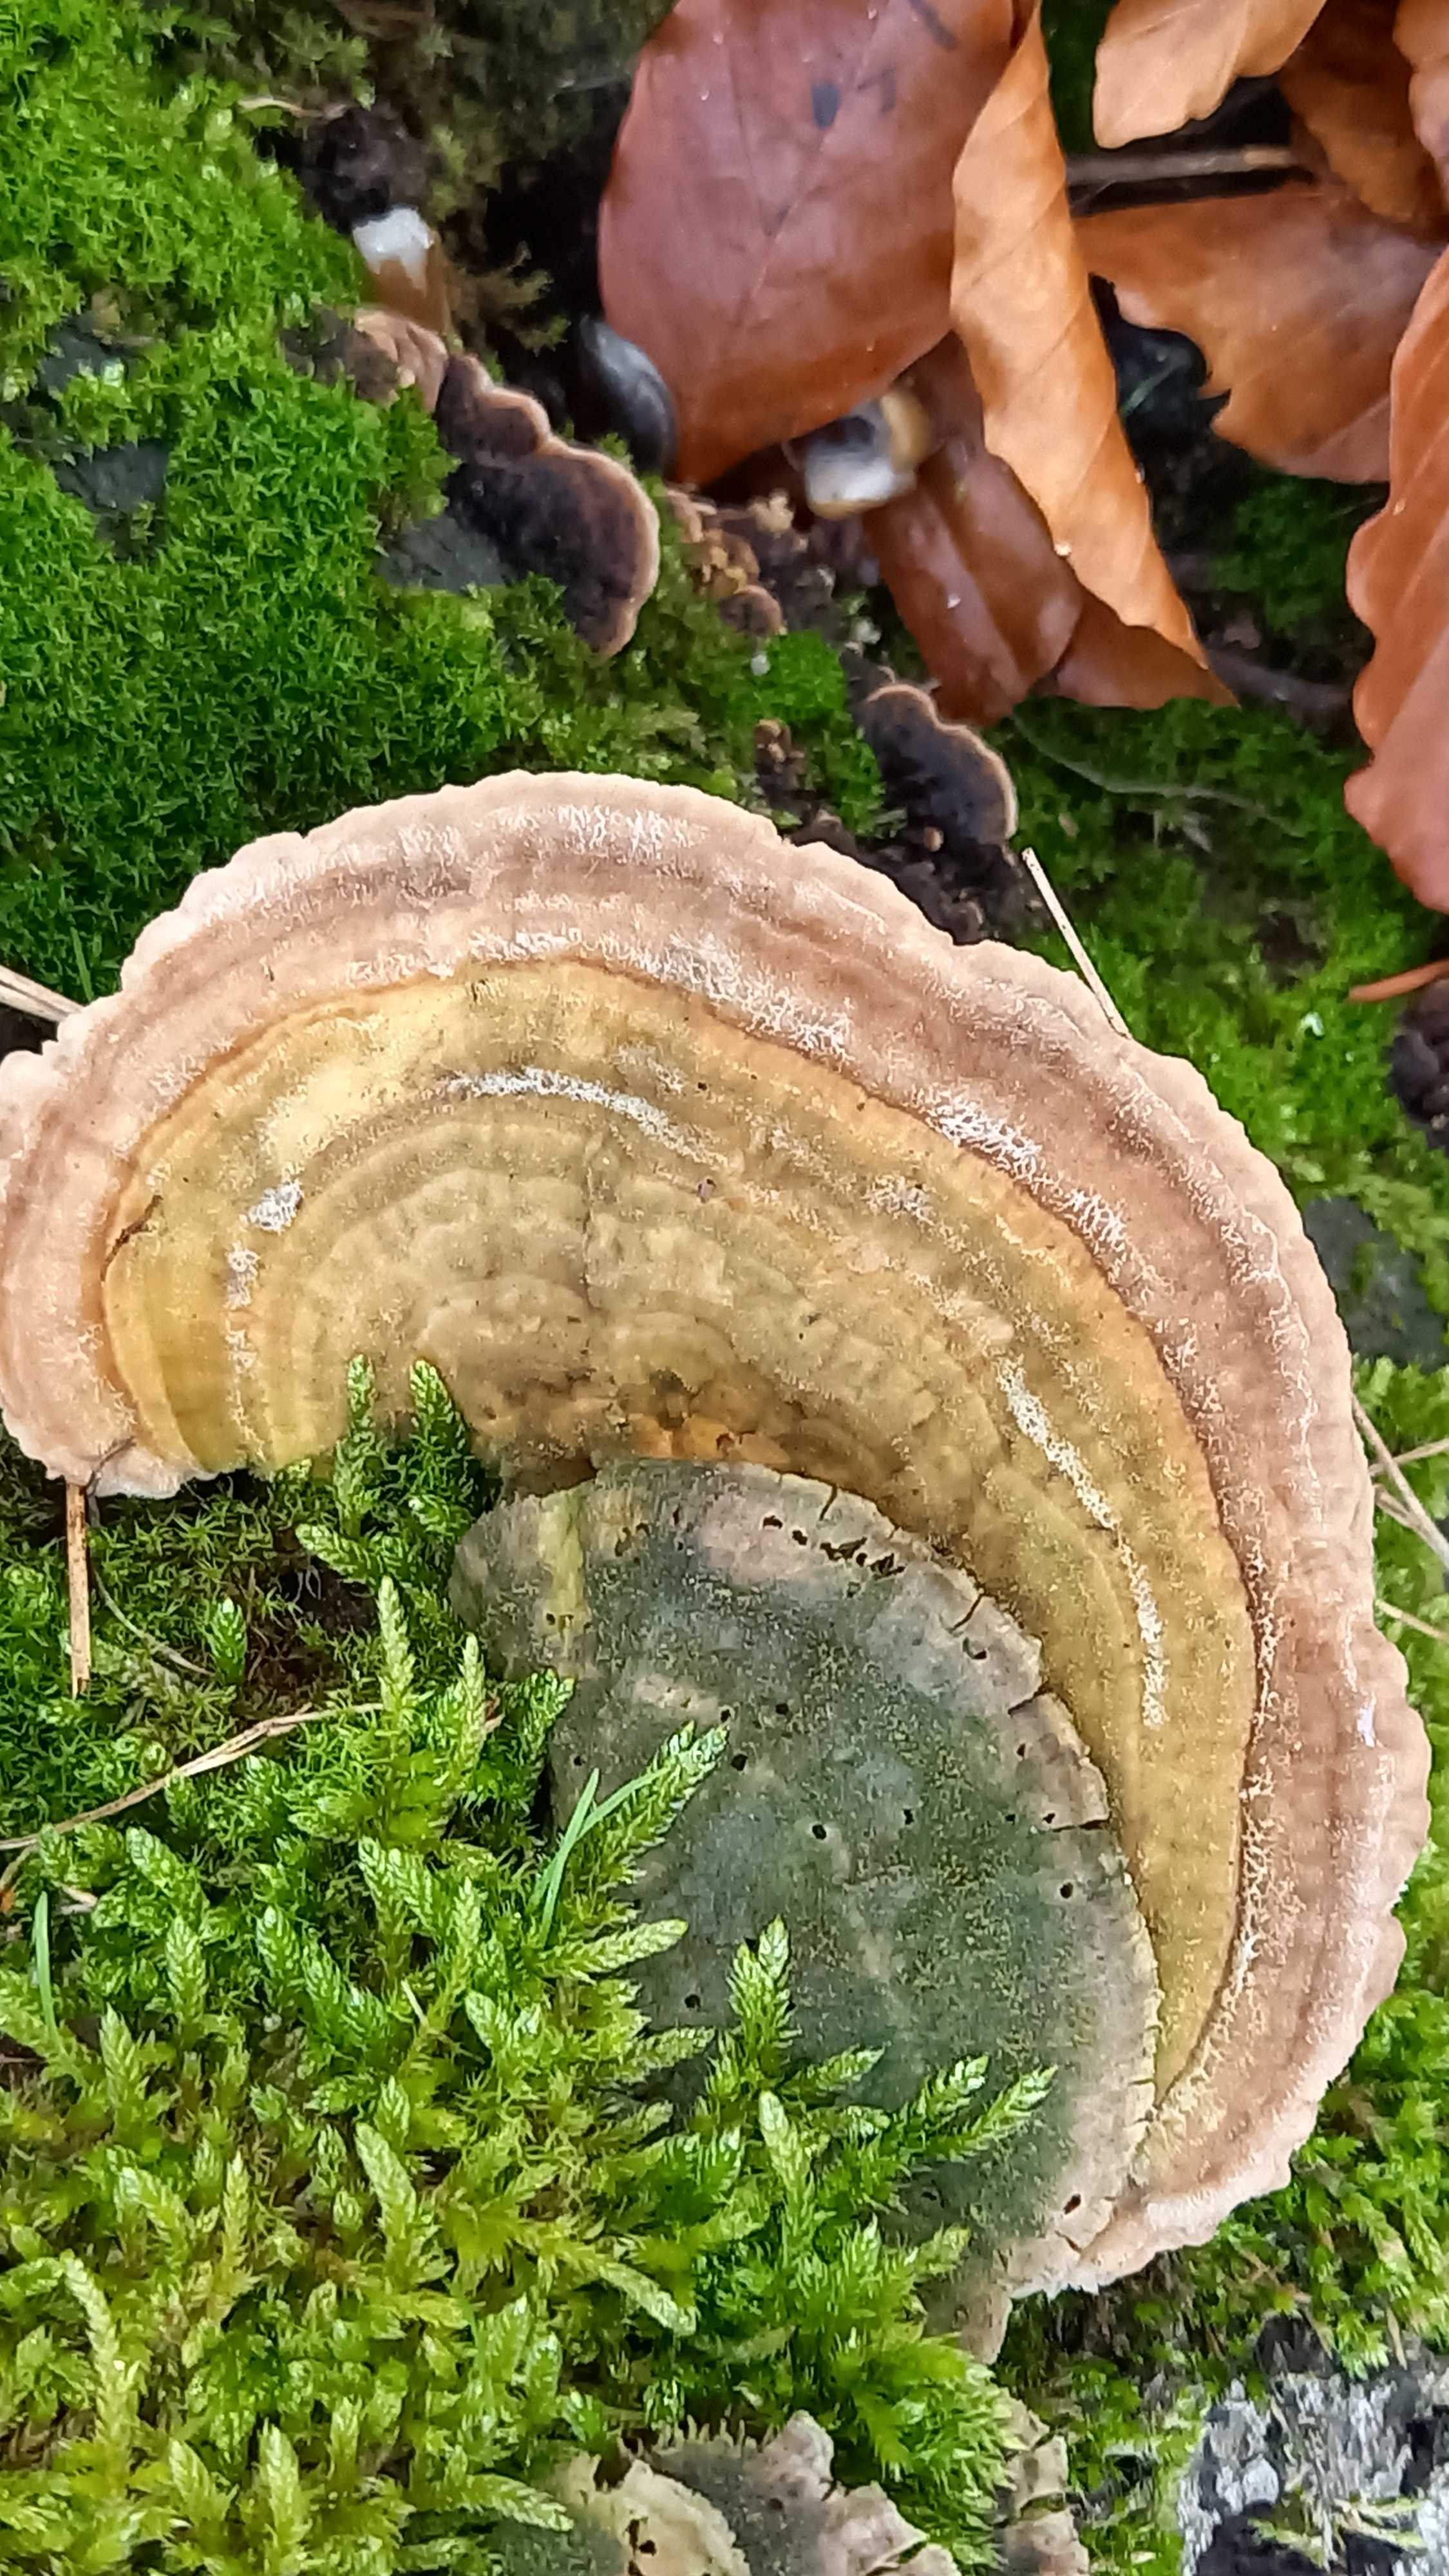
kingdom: Fungi
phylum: Basidiomycota
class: Agaricomycetes
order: Polyporales
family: Polyporaceae
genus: Lenzites
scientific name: Lenzites betulinus
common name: birke-læderporesvamp
